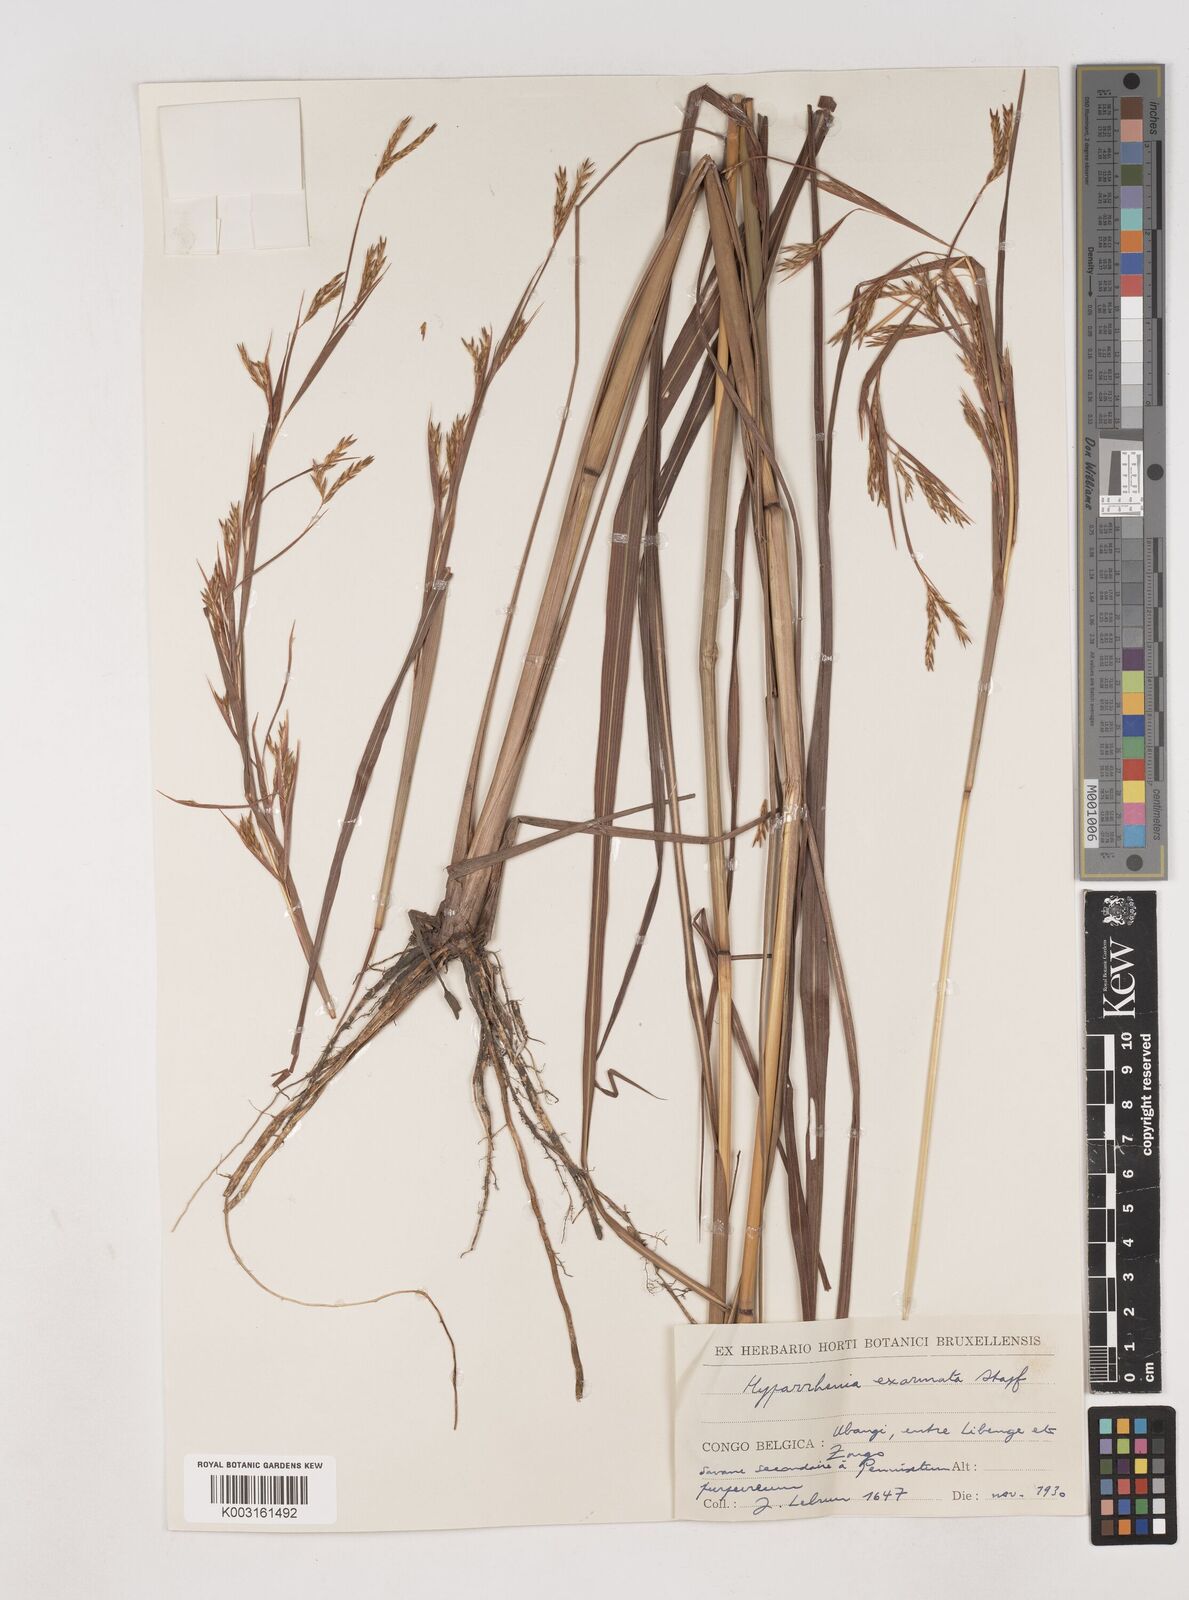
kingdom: Plantae
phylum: Tracheophyta
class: Liliopsida
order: Poales
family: Poaceae
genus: Hyparrhenia
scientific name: Hyparrhenia exarmata
